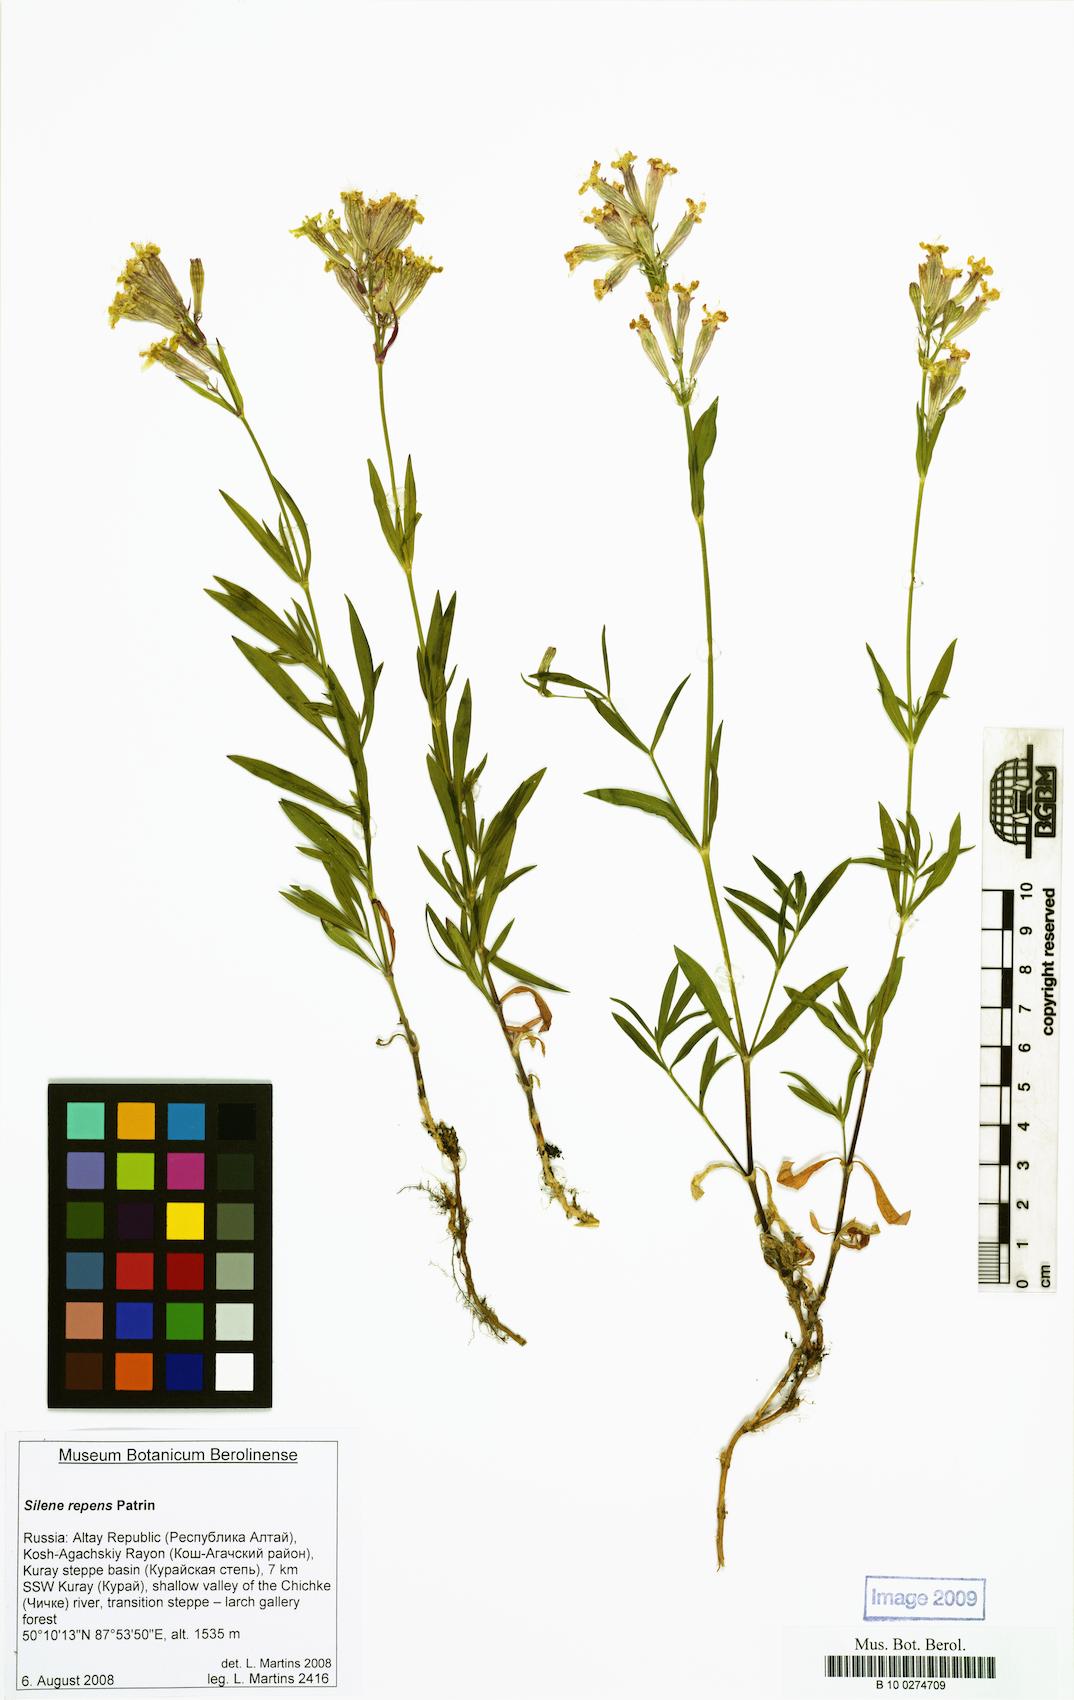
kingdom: Plantae
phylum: Tracheophyta
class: Magnoliopsida
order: Caryophyllales
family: Caryophyllaceae
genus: Silene
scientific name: Silene repens
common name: Pink campion
